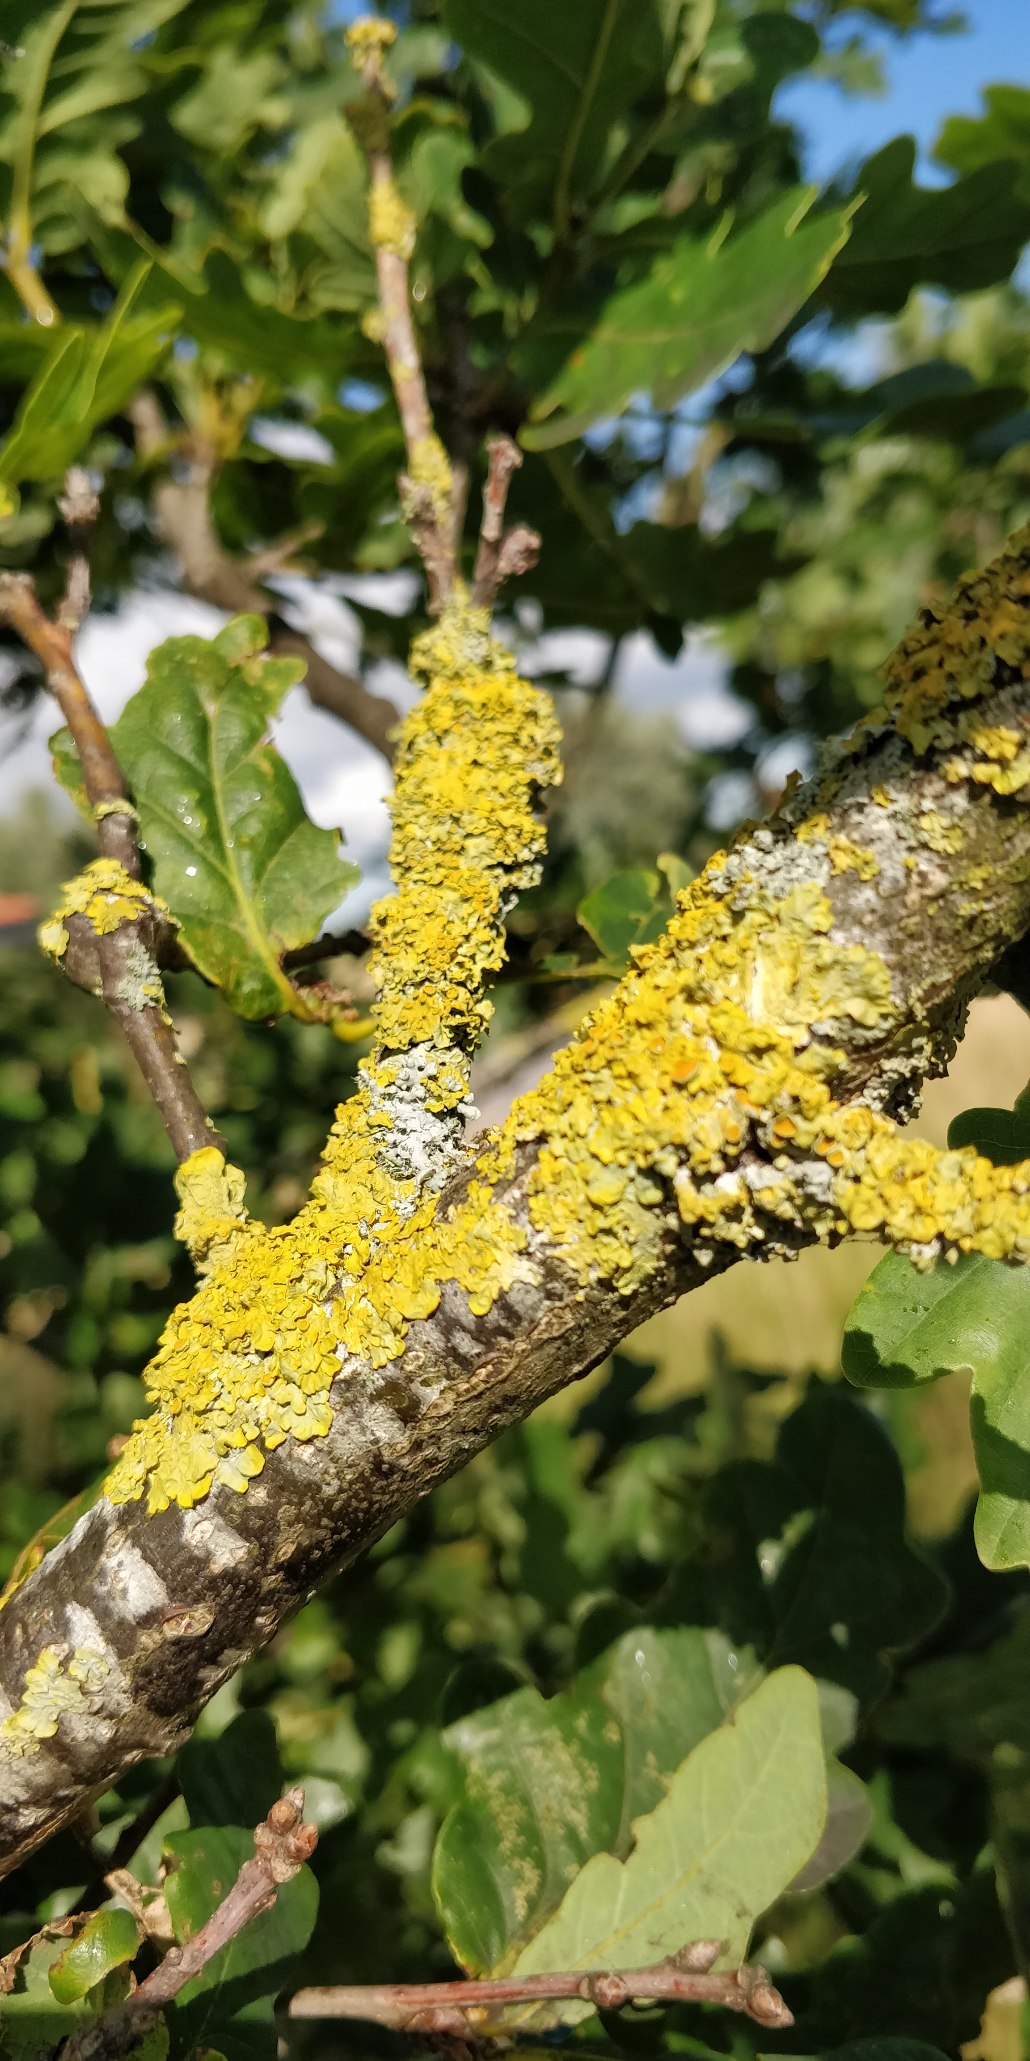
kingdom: Fungi
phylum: Ascomycota
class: Lecanoromycetes
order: Teloschistales
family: Teloschistaceae
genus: Xanthoria
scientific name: Xanthoria parietina
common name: Almindelig væggelav
